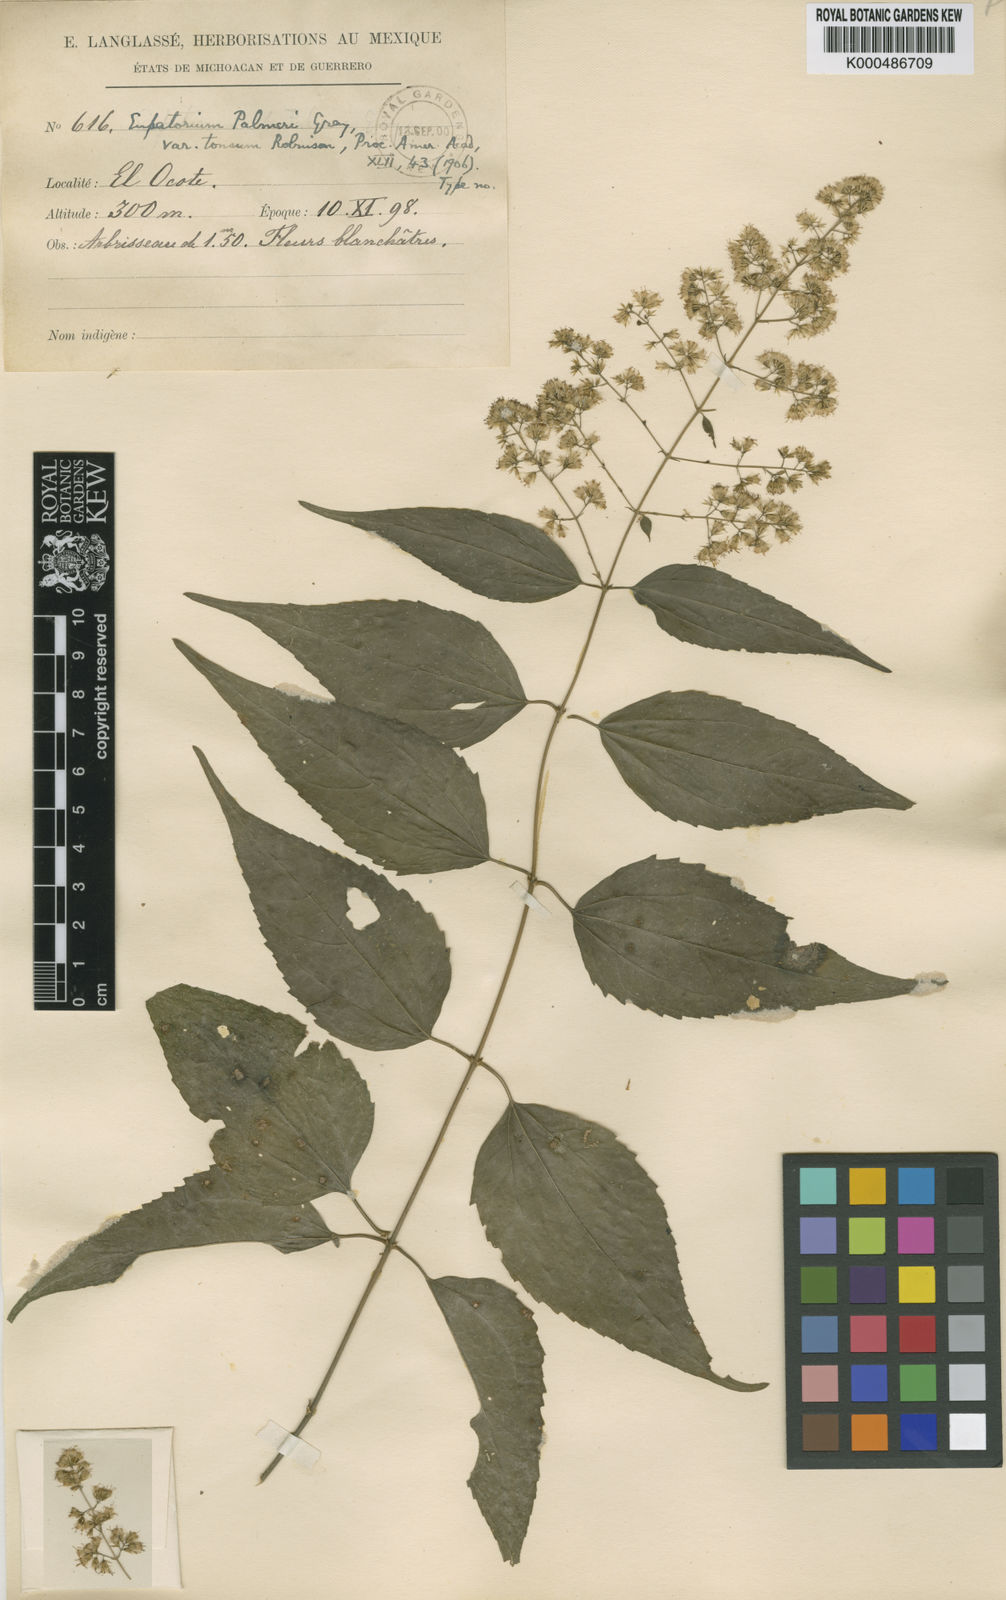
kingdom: Plantae
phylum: Tracheophyta
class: Magnoliopsida
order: Asterales
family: Asteraceae
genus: Koanophyllon
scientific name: Koanophyllon palmeri
